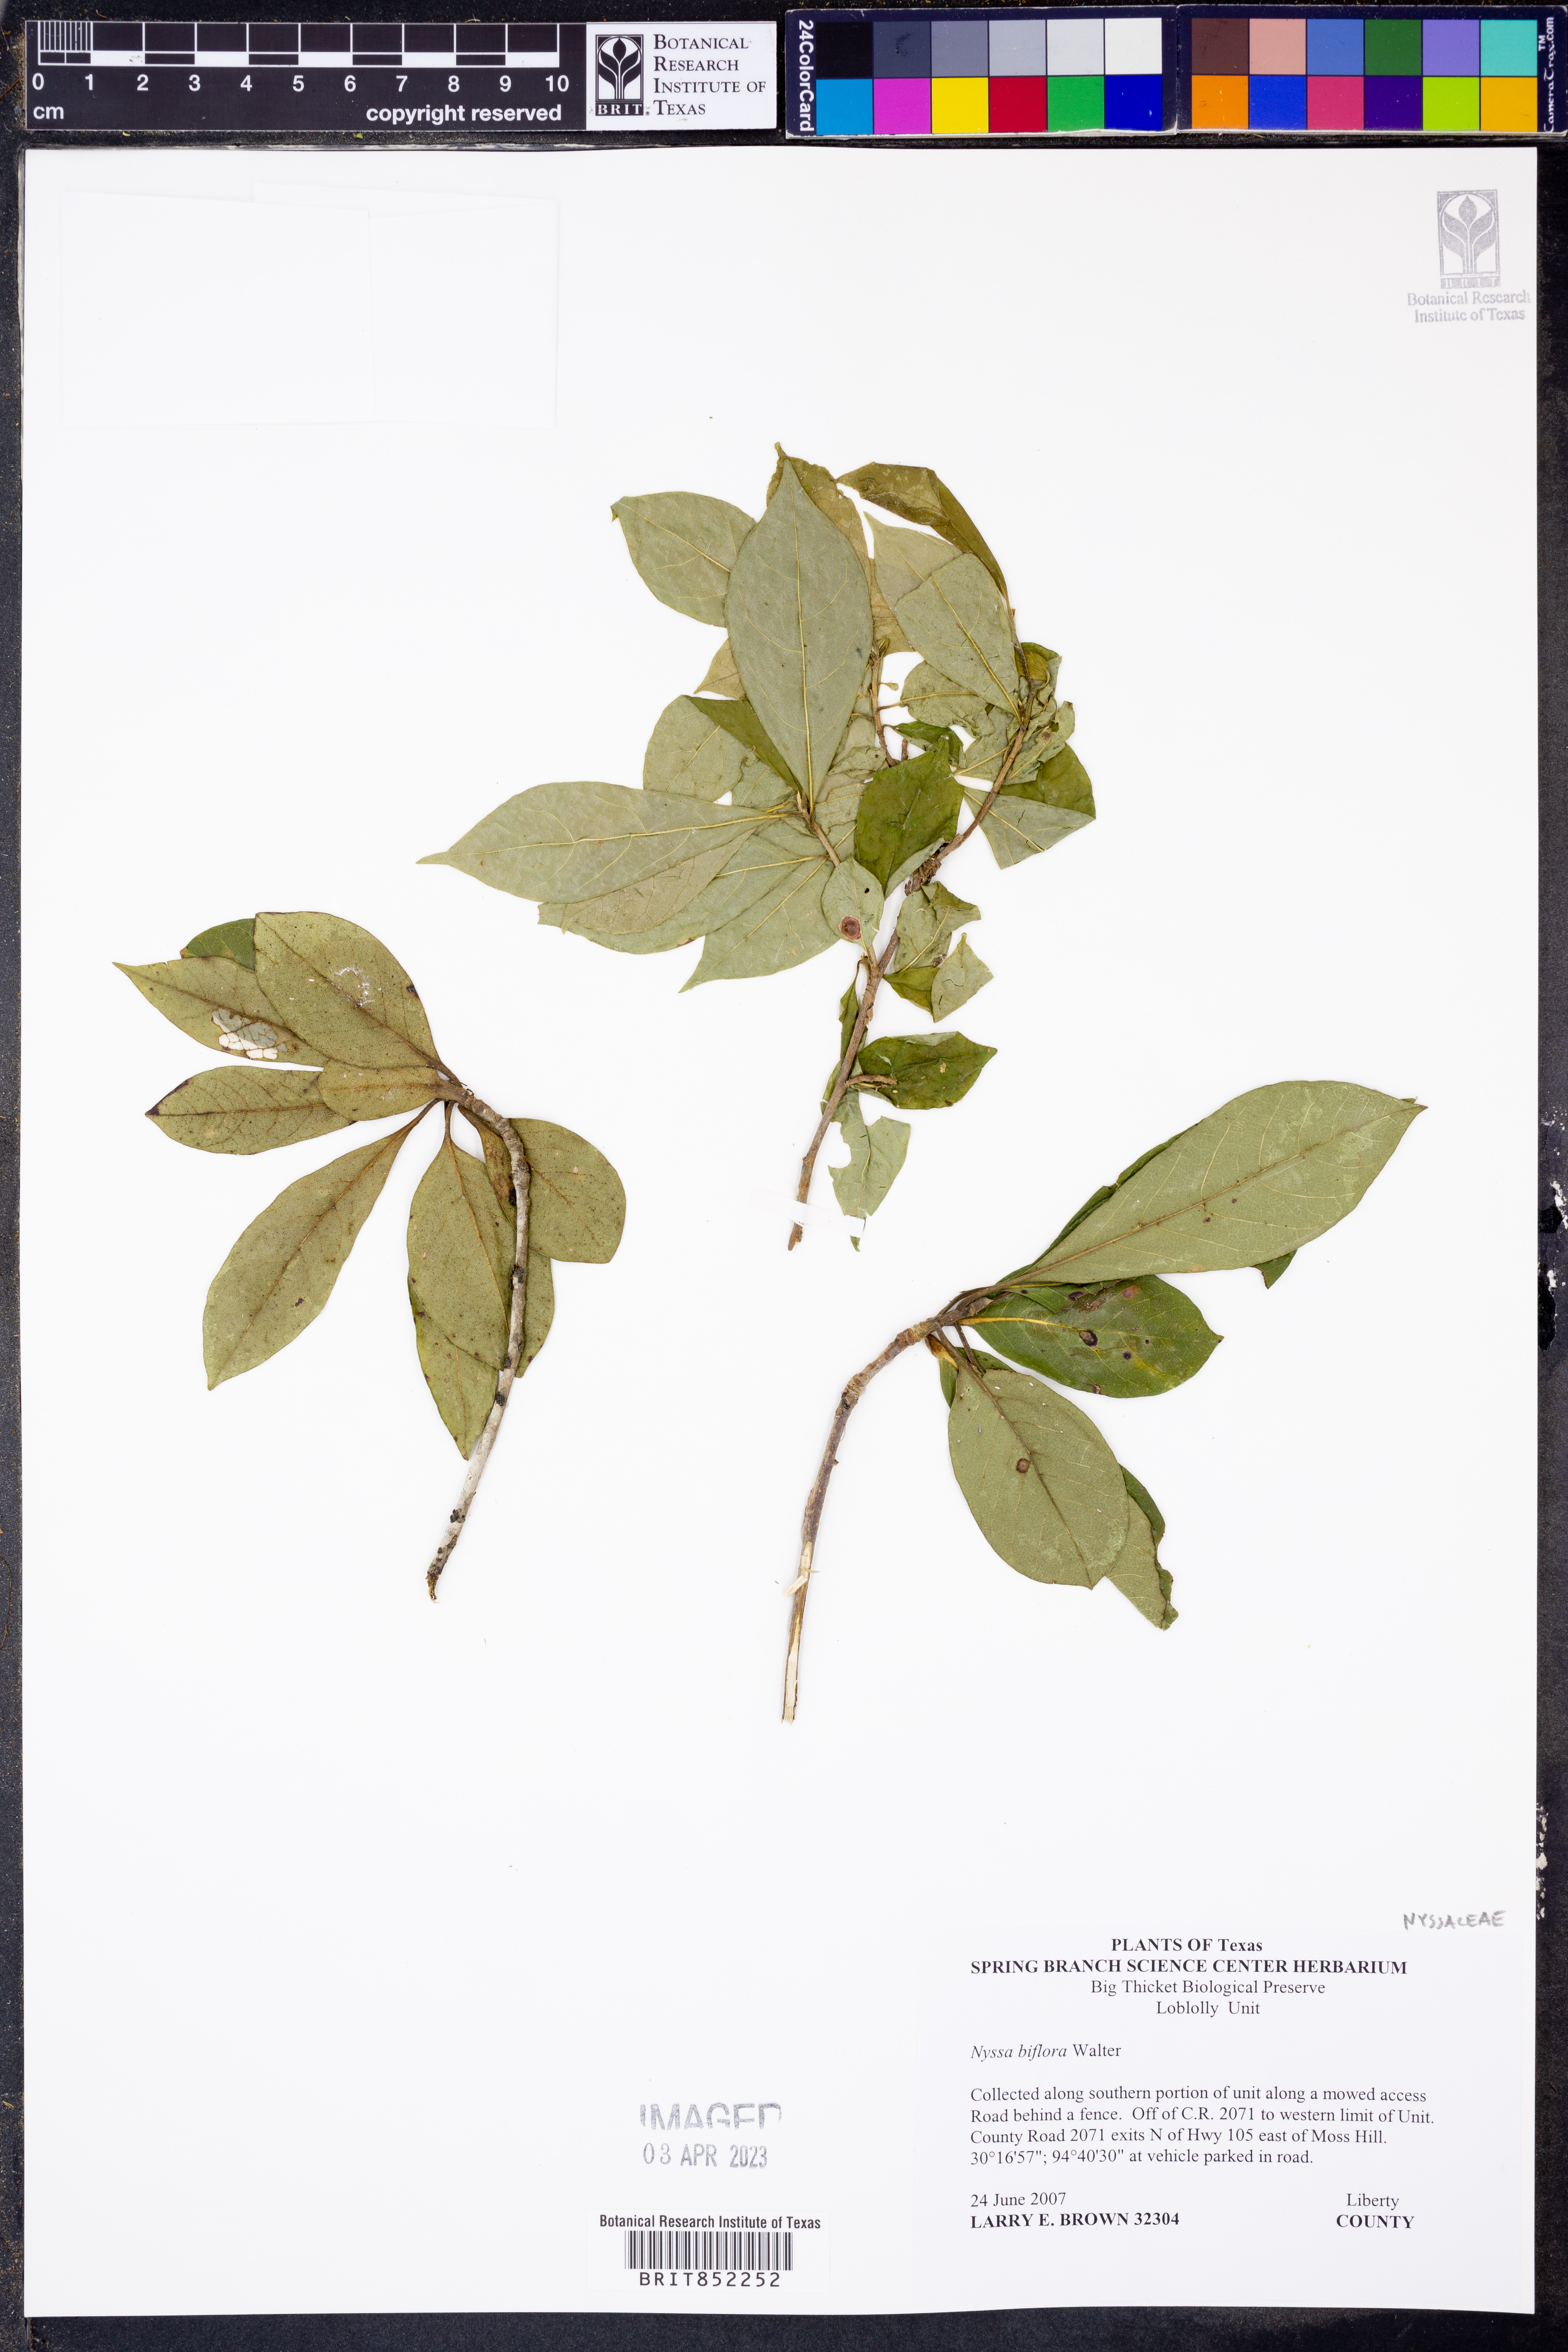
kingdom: Plantae
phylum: Tracheophyta
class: Magnoliopsida
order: Cornales
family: Nyssaceae
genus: Nyssa
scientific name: Nyssa biflora
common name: Swamp blackgum
